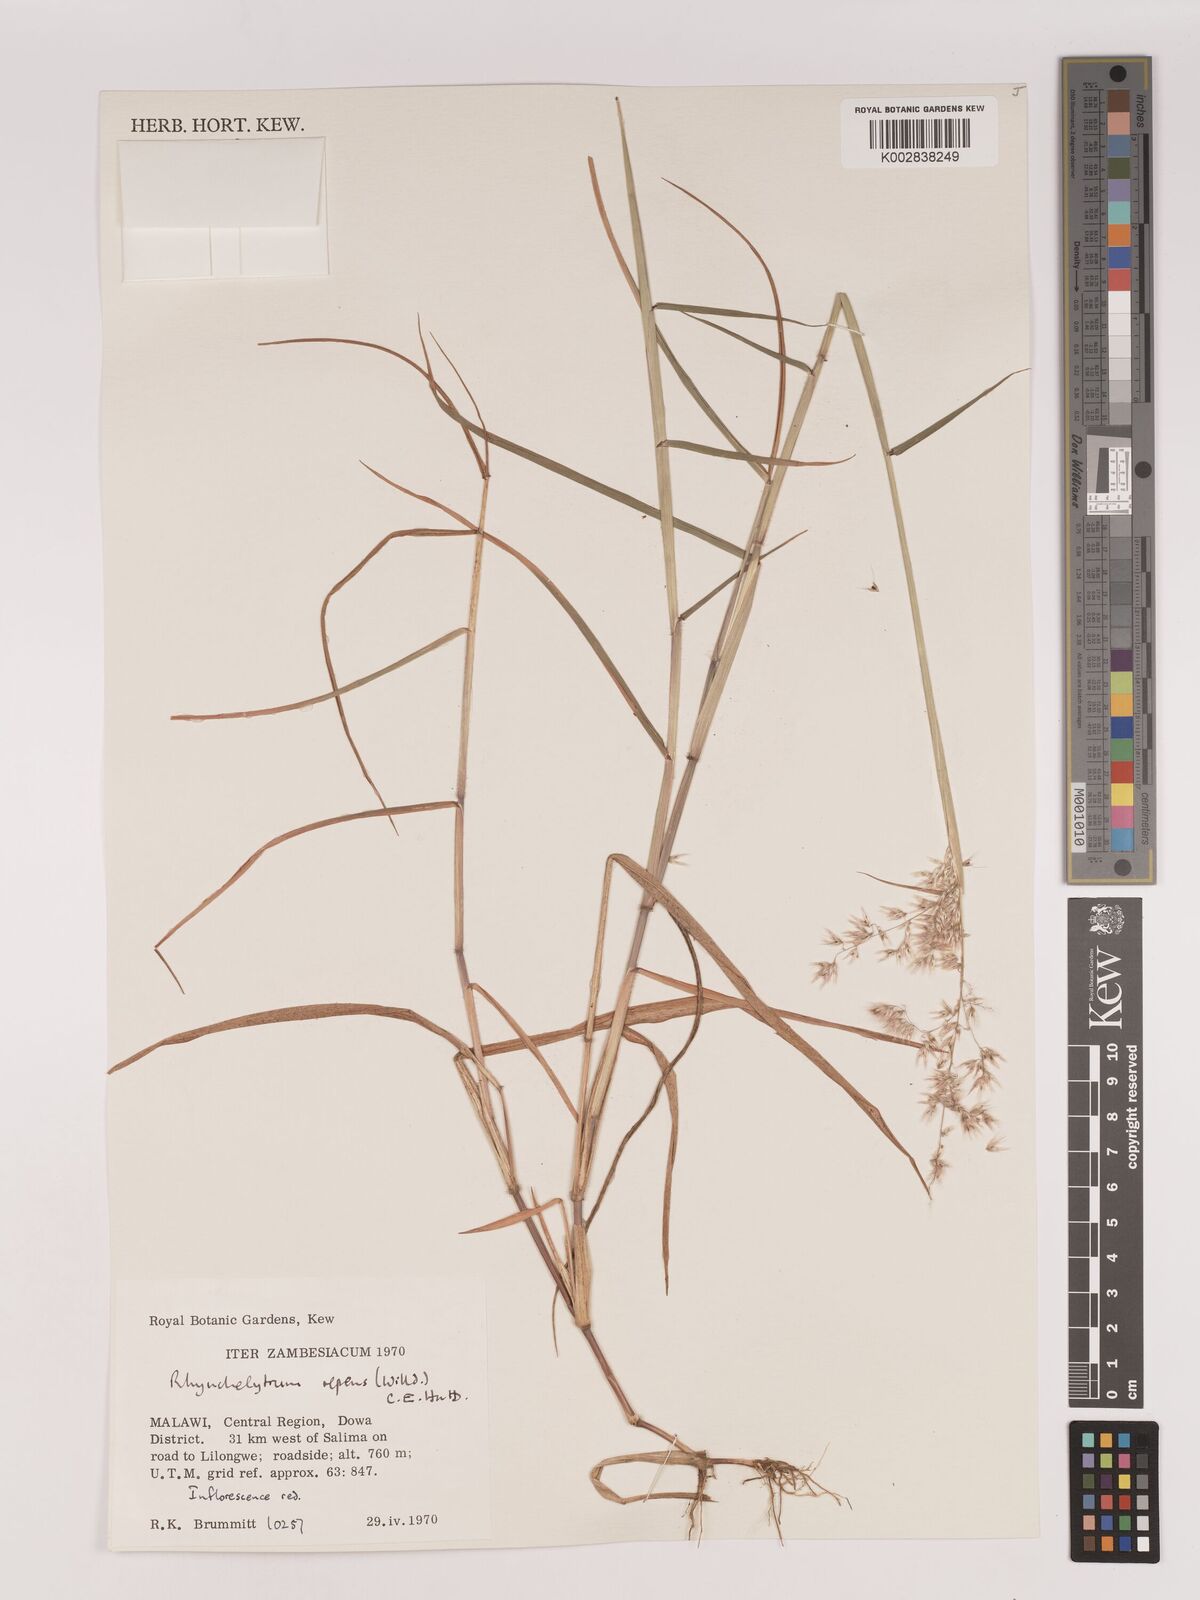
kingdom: Plantae
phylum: Tracheophyta
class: Liliopsida
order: Poales
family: Poaceae
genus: Melinis
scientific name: Melinis repens
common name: Rose natal grass
